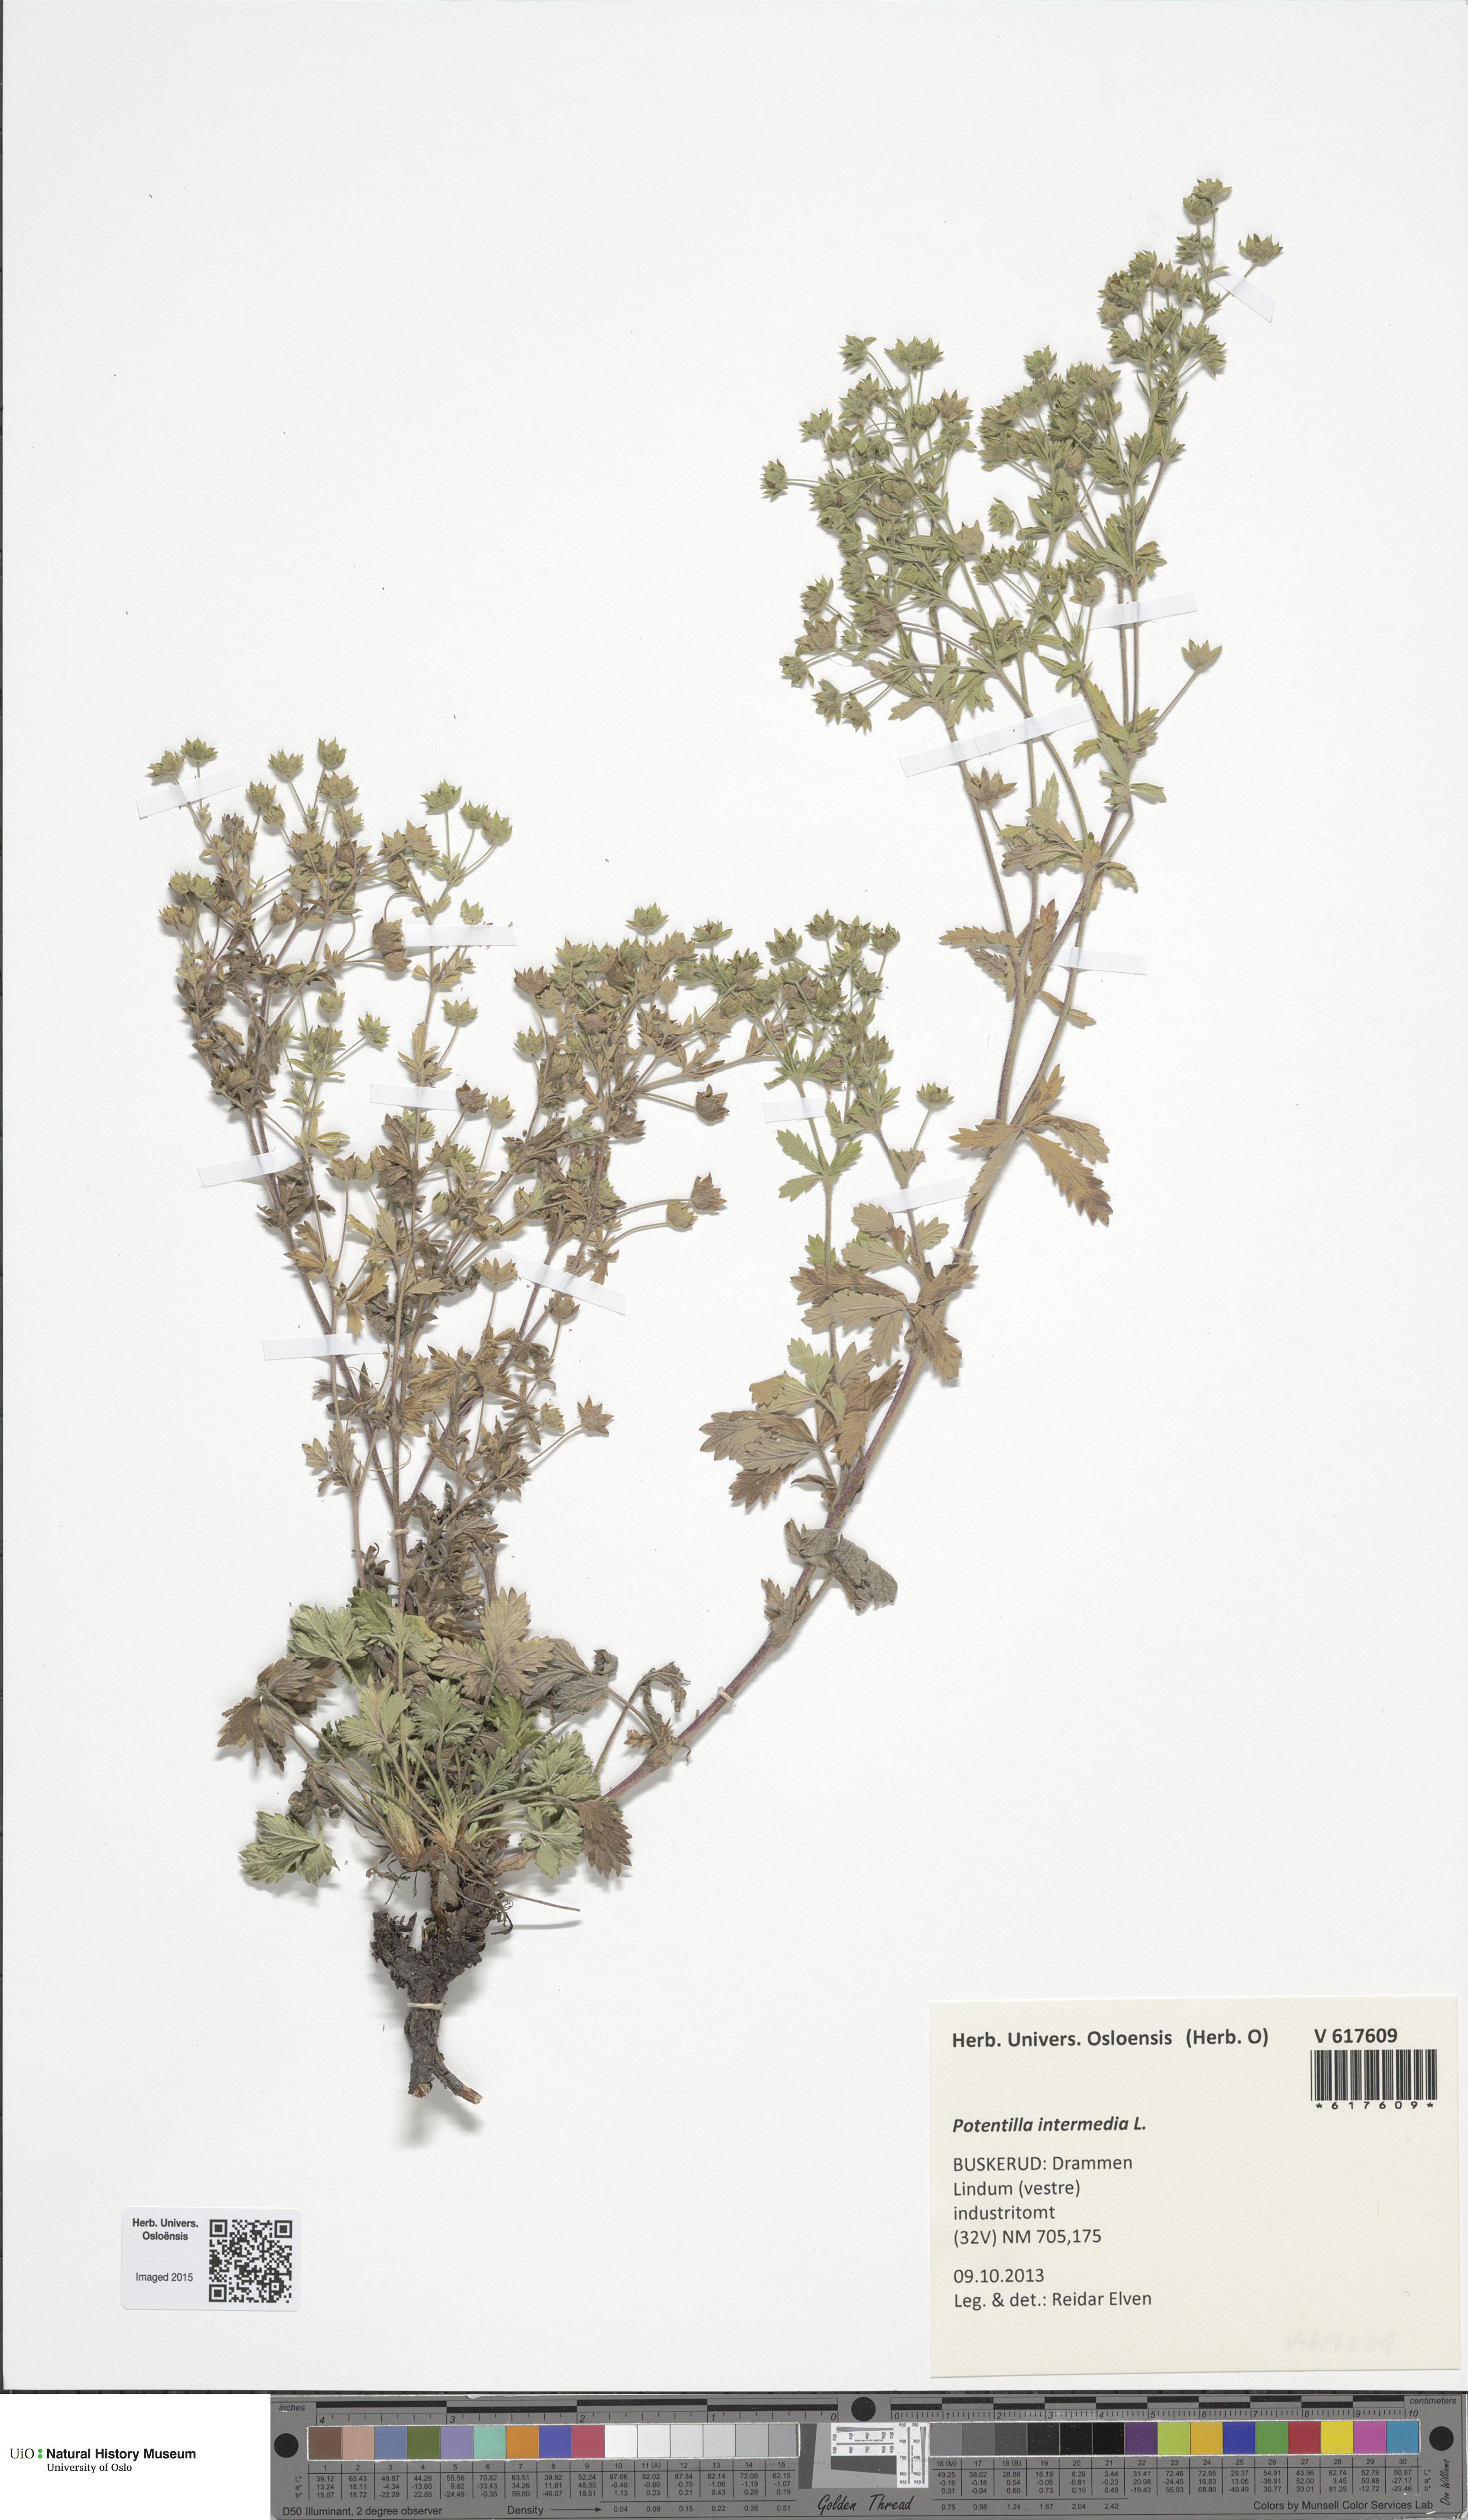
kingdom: Plantae
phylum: Tracheophyta
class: Magnoliopsida
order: Rosales
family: Rosaceae
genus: Potentilla
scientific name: Potentilla intermedia
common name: Downy cinquefoil
